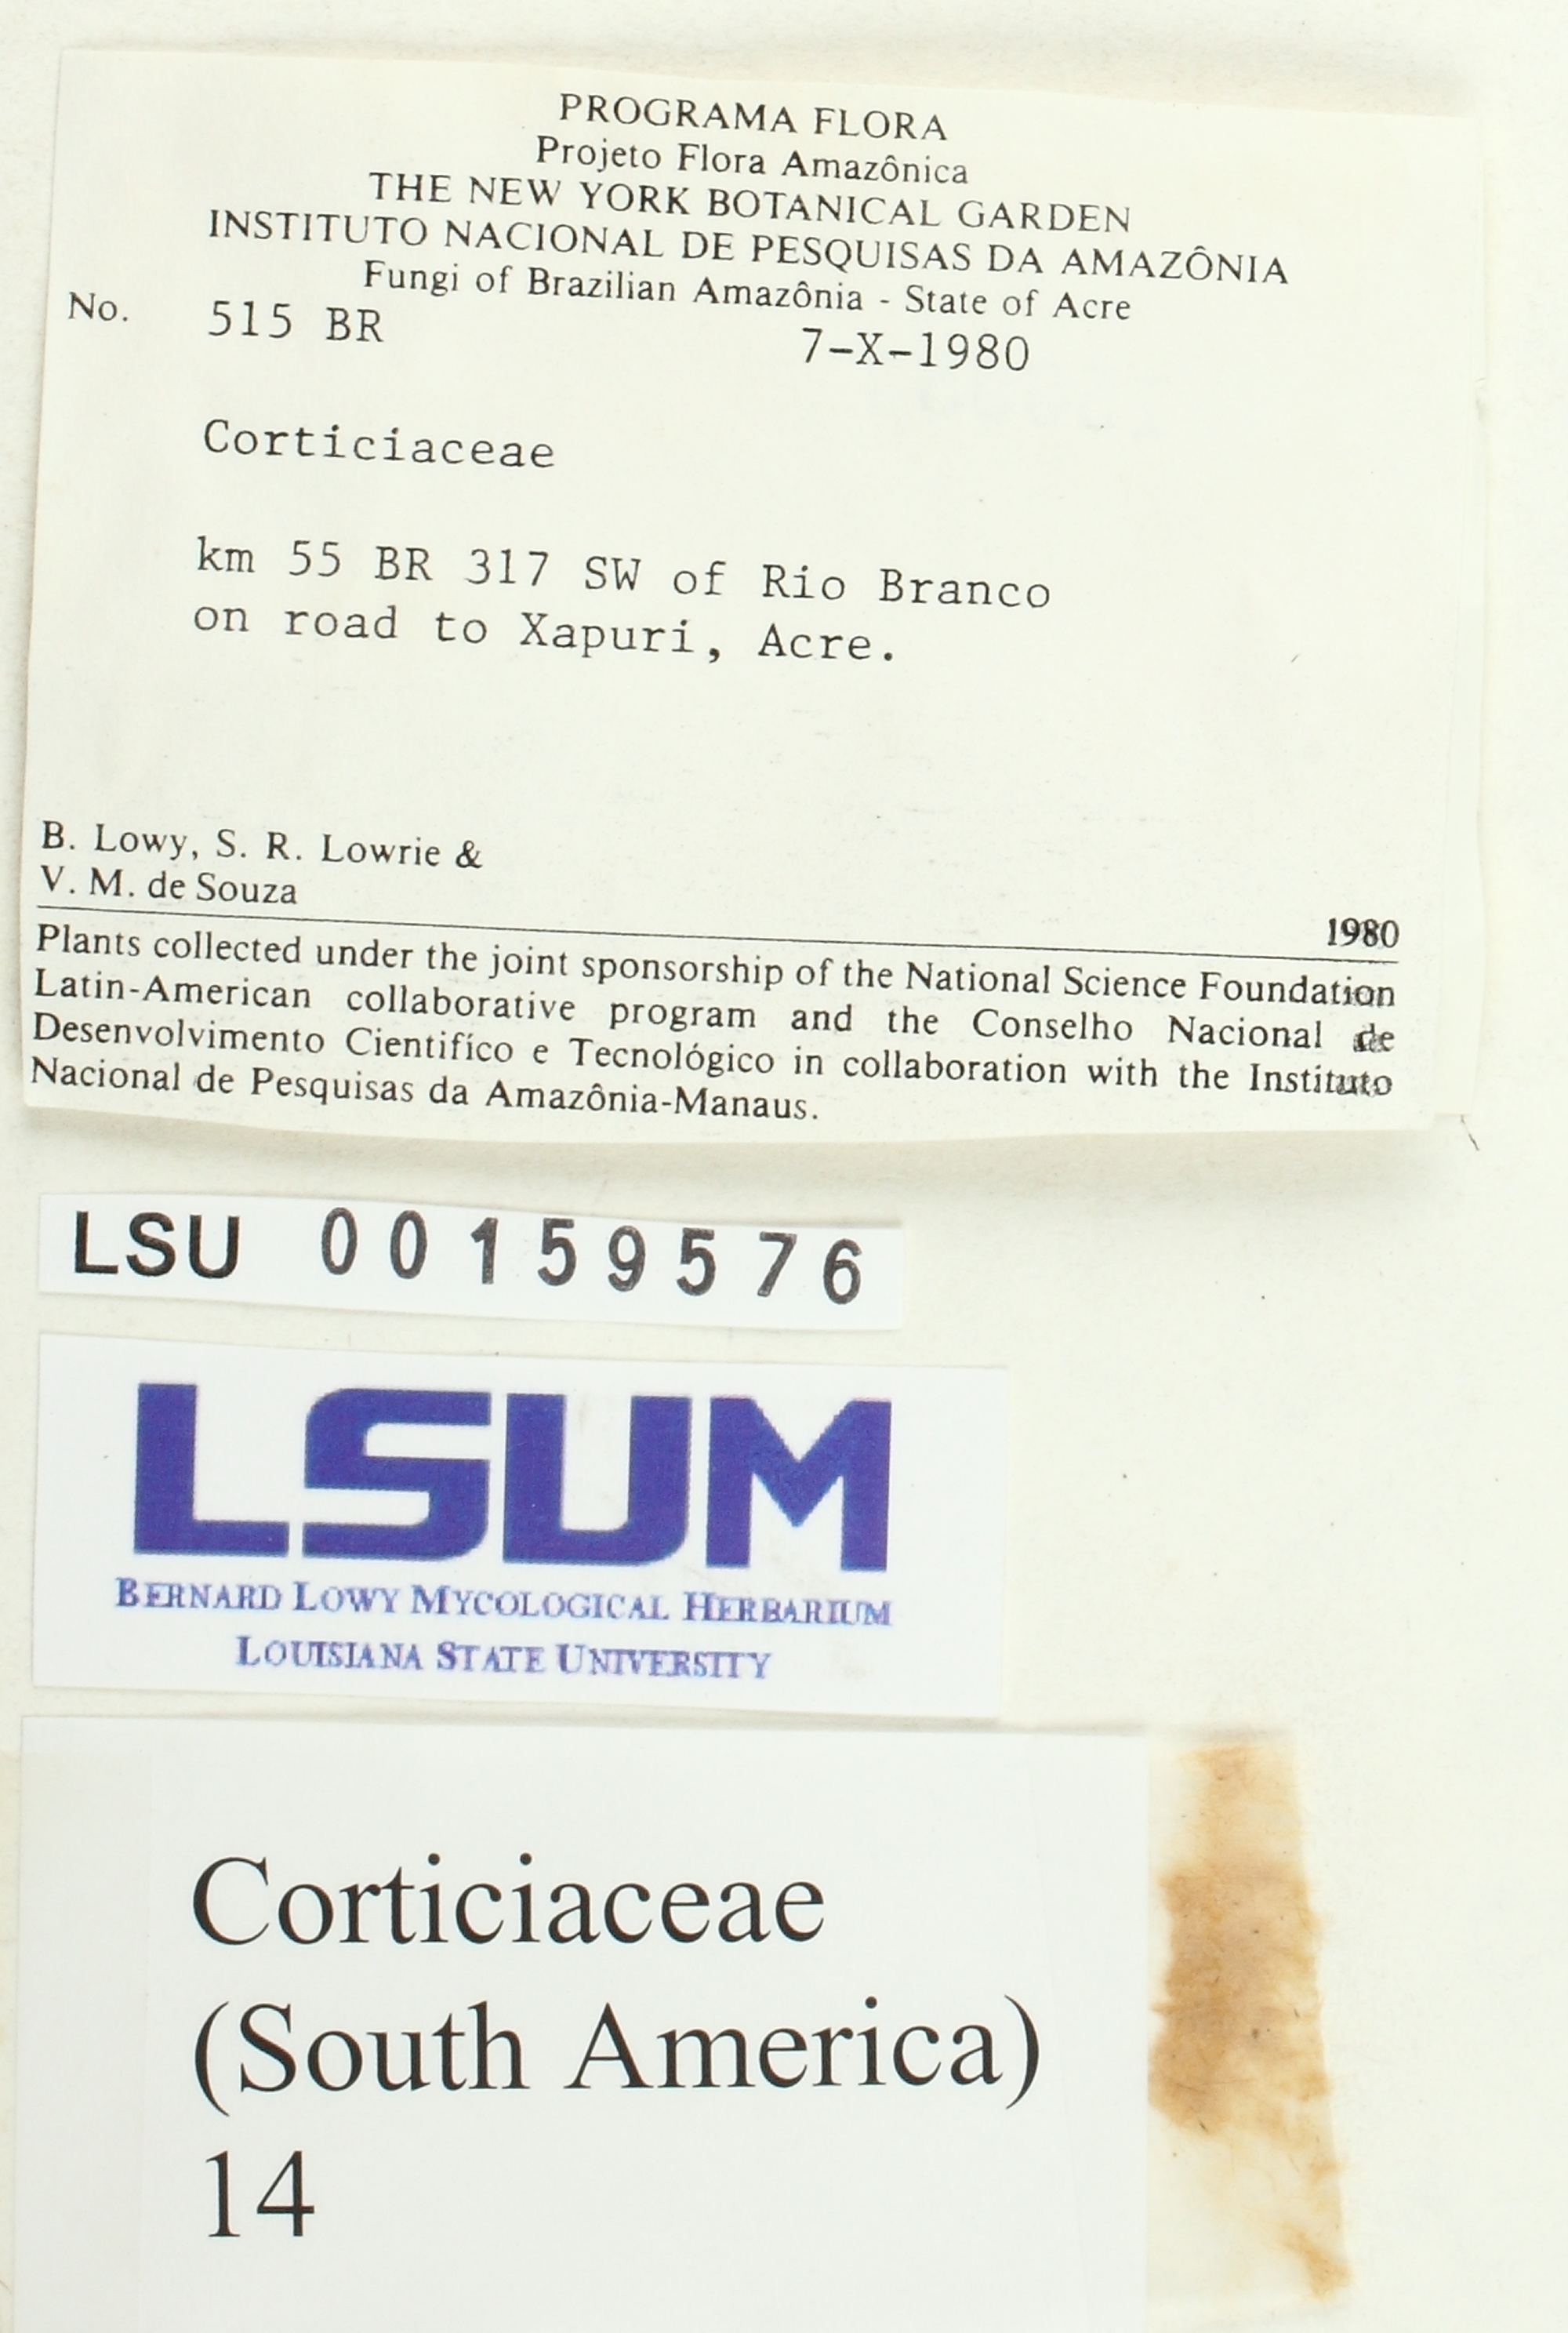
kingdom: Fungi
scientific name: Fungi
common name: Fungi
